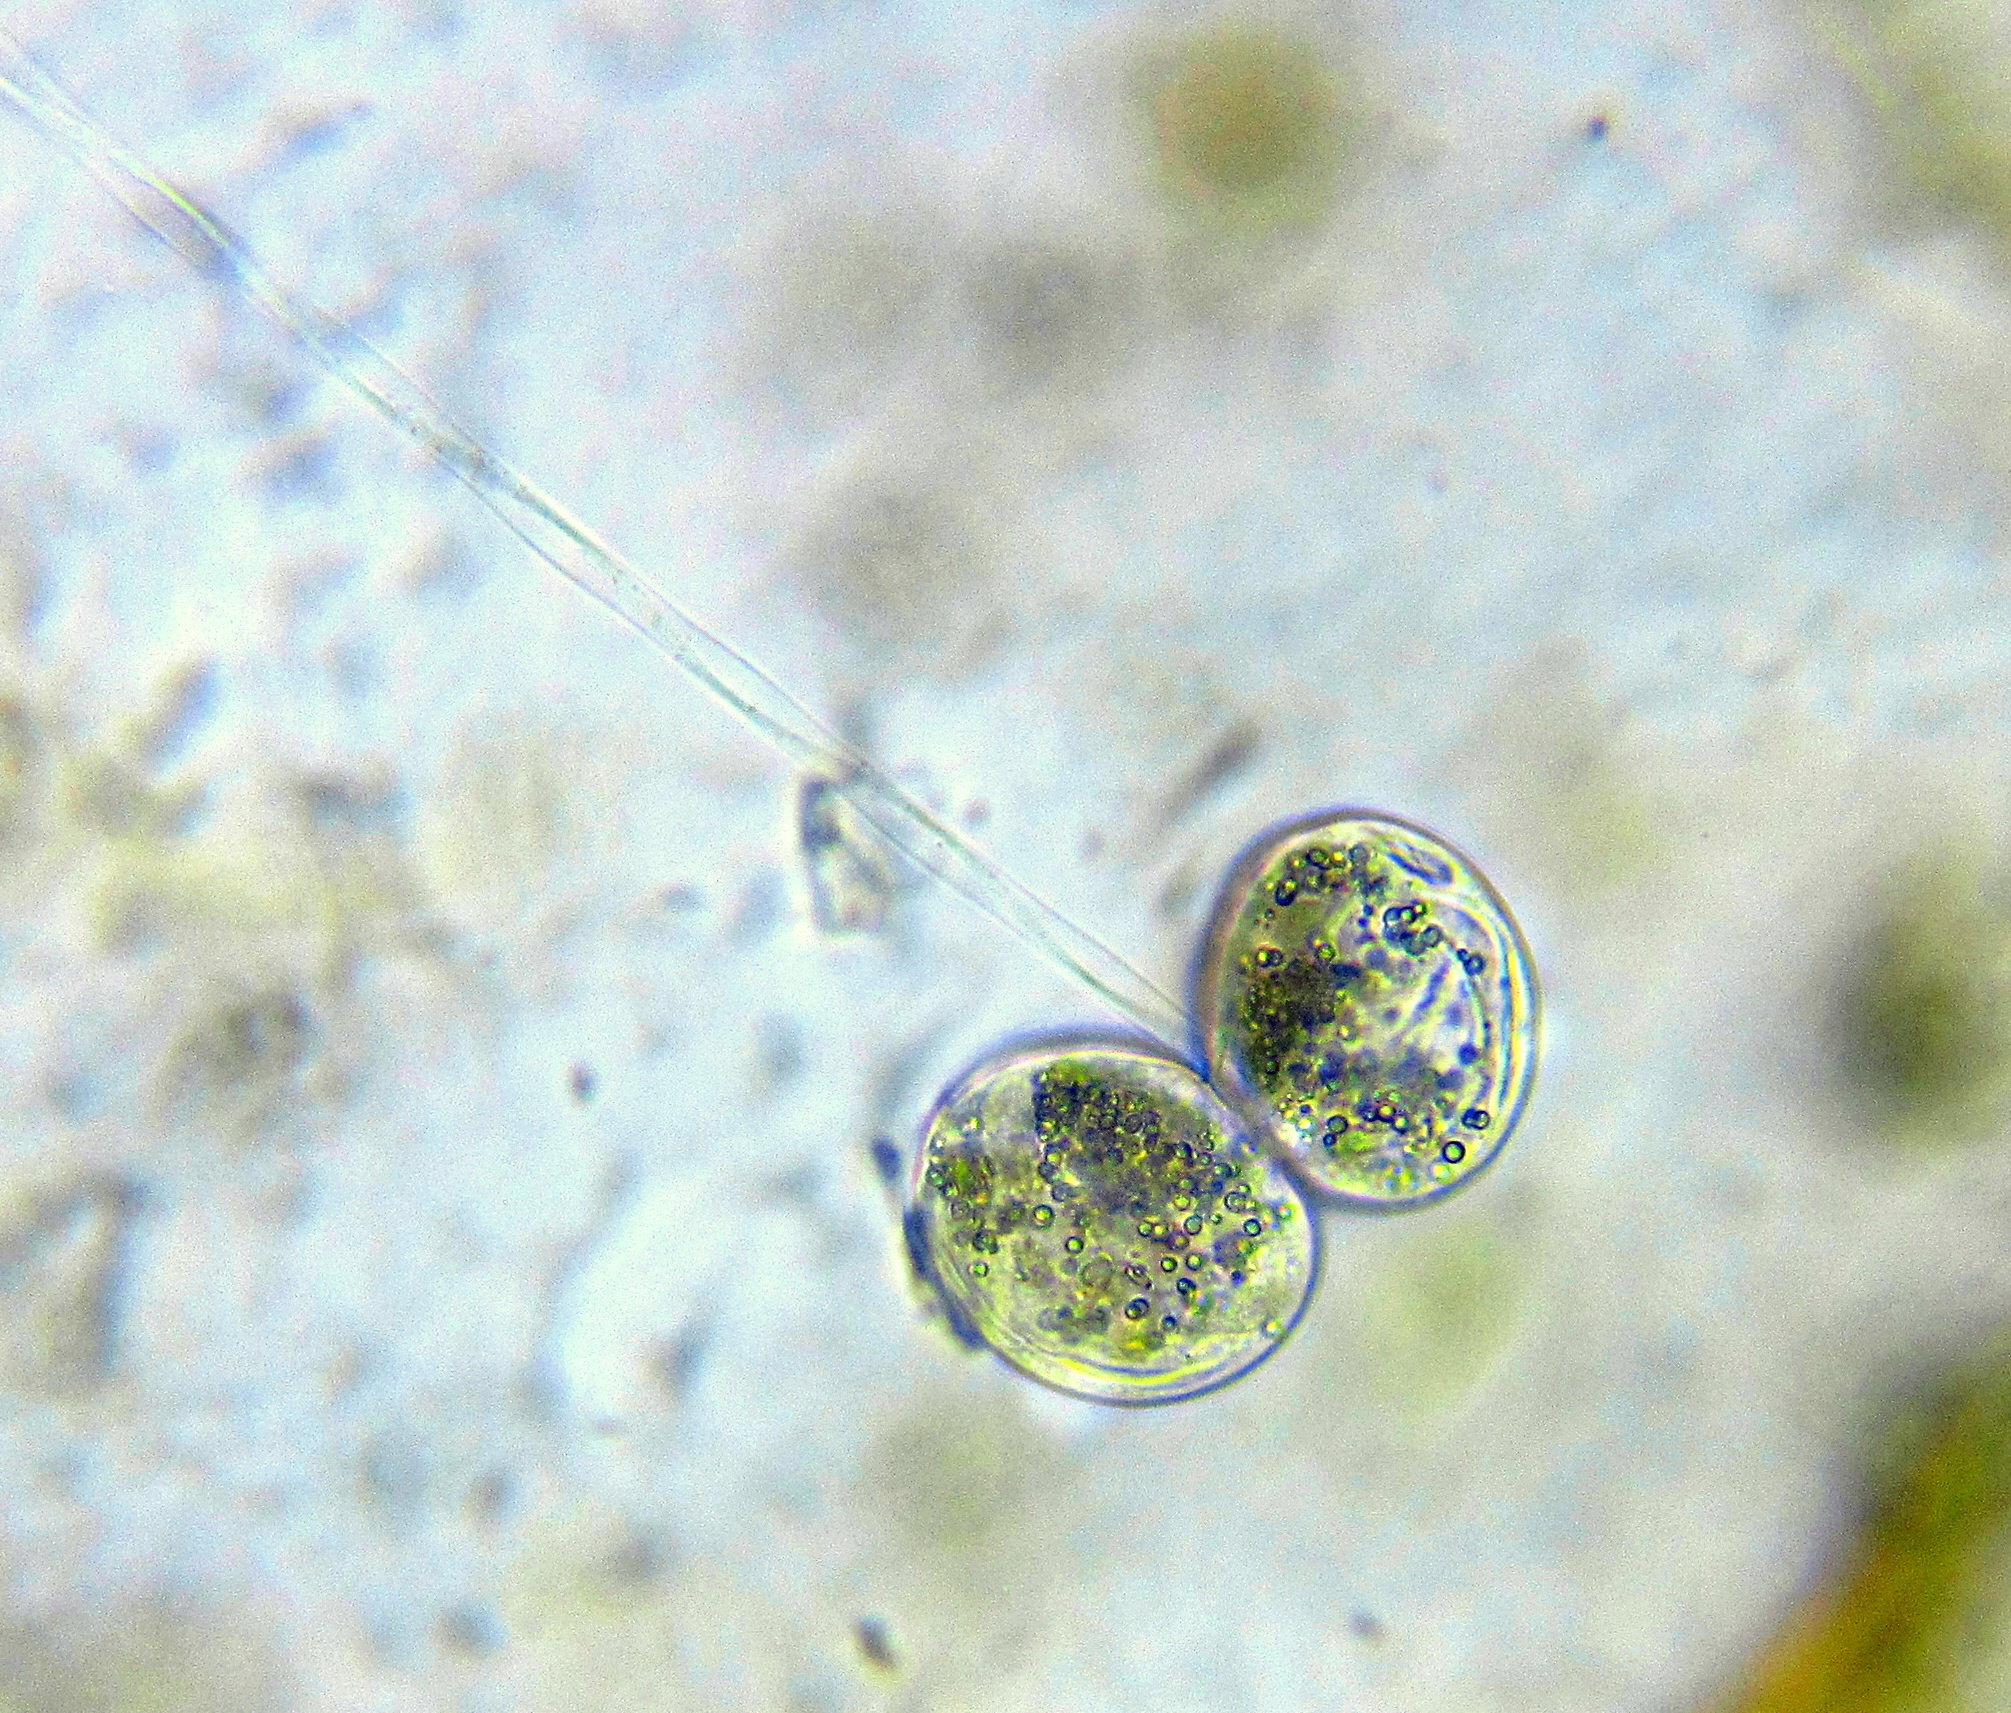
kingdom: Chromista
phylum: Ciliophora
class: Oligohymenophorea
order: Peritrichida
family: Vorticellidae
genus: Vorticella
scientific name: Vorticella
